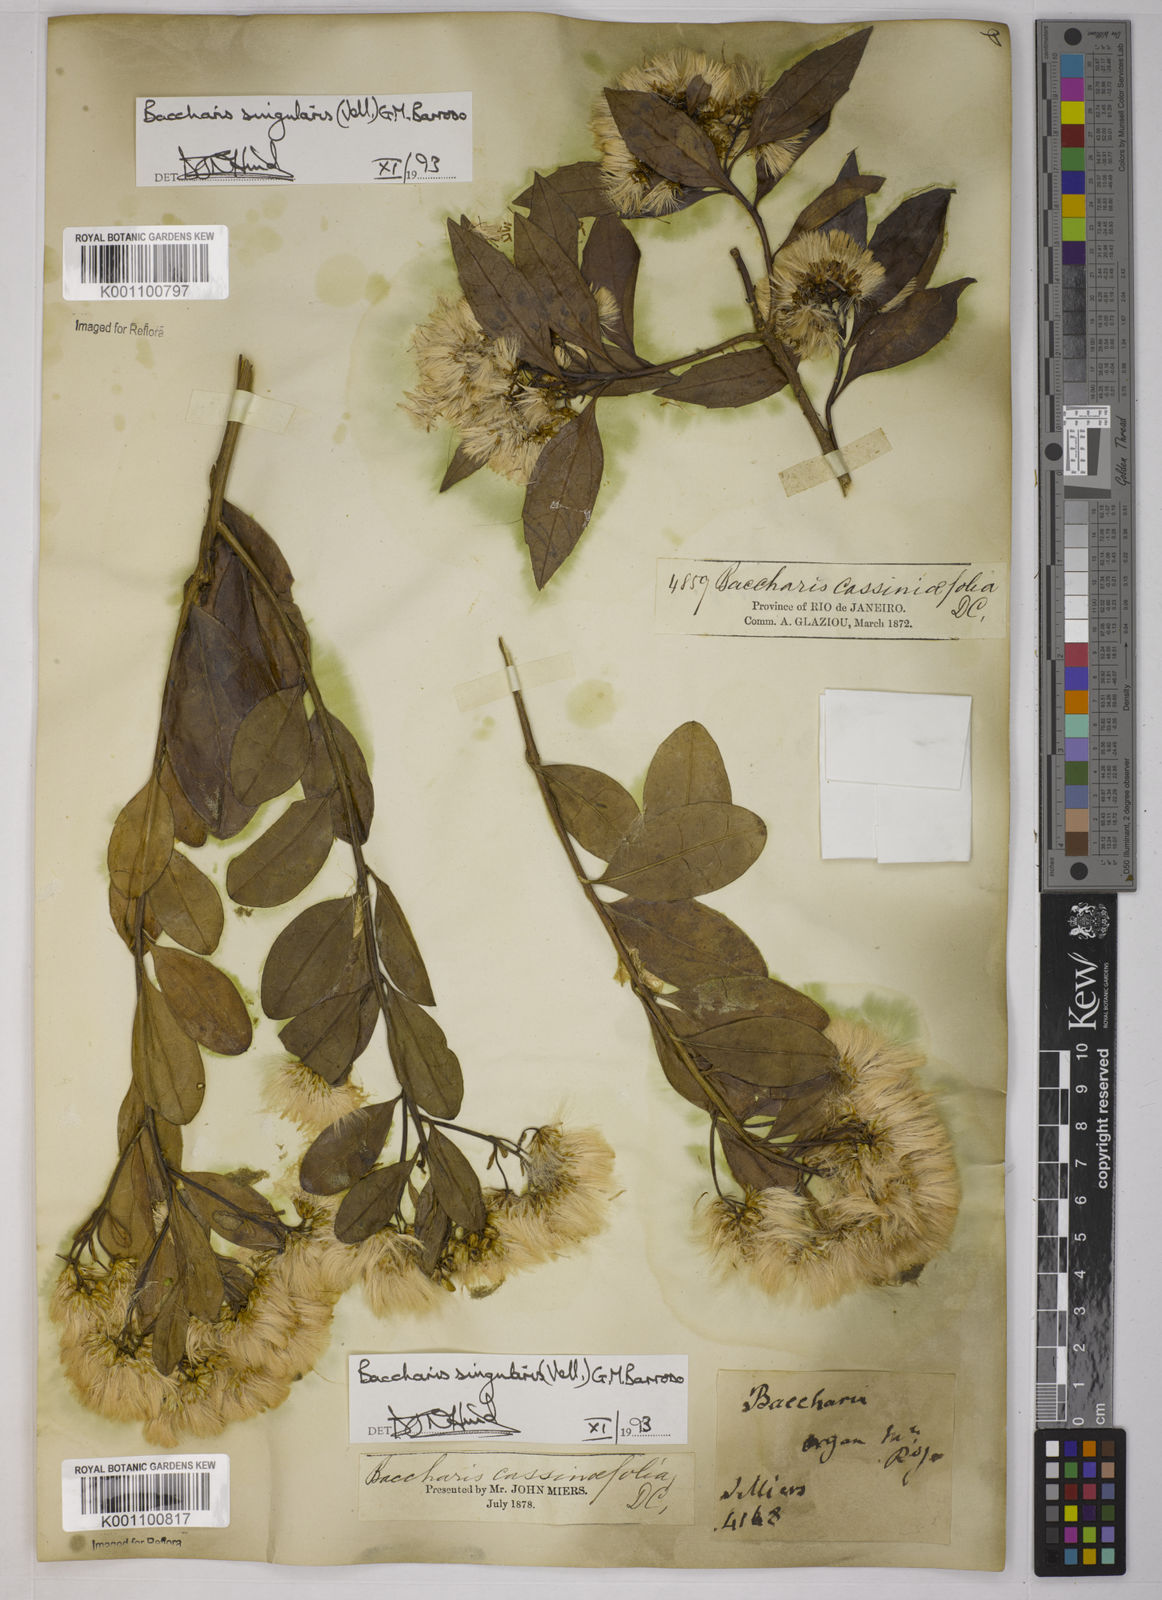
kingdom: Plantae
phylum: Tracheophyta
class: Magnoliopsida
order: Asterales
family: Asteraceae
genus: Baccharis
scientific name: Baccharis
